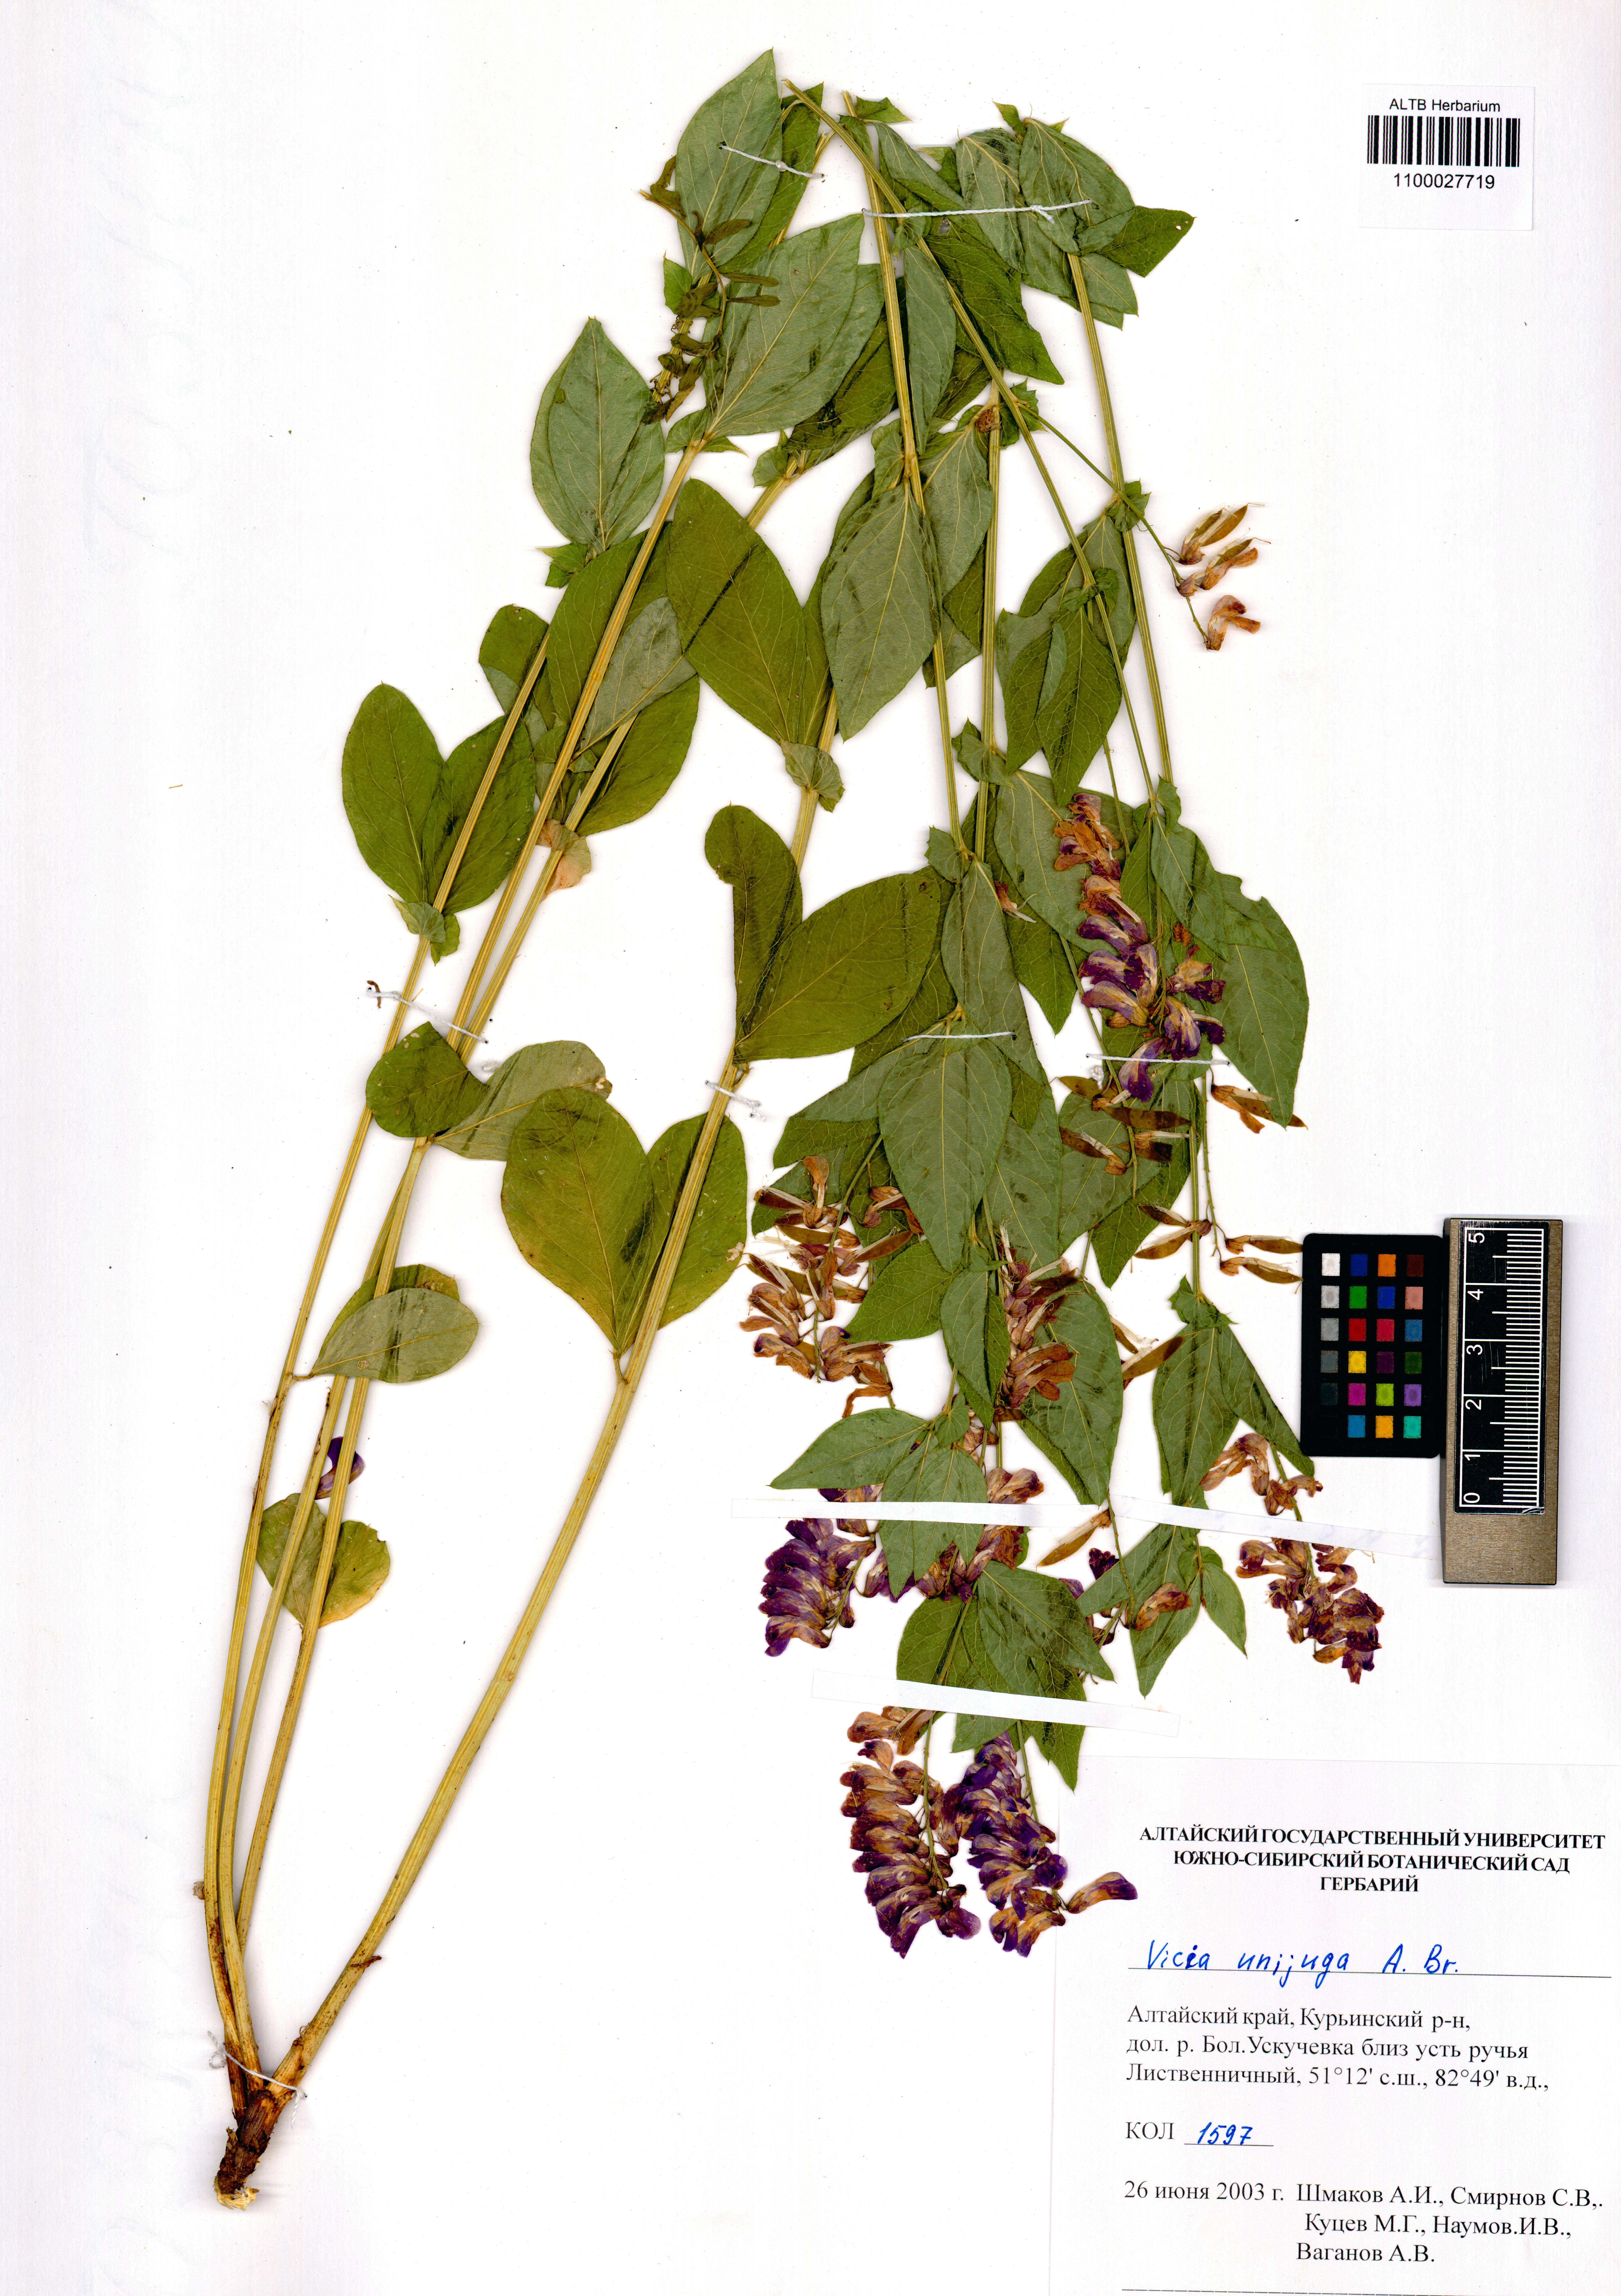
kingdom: Plantae
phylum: Tracheophyta
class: Magnoliopsida
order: Fabales
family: Fabaceae
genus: Vicia
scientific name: Vicia unijuga
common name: Two-leaf vetch
